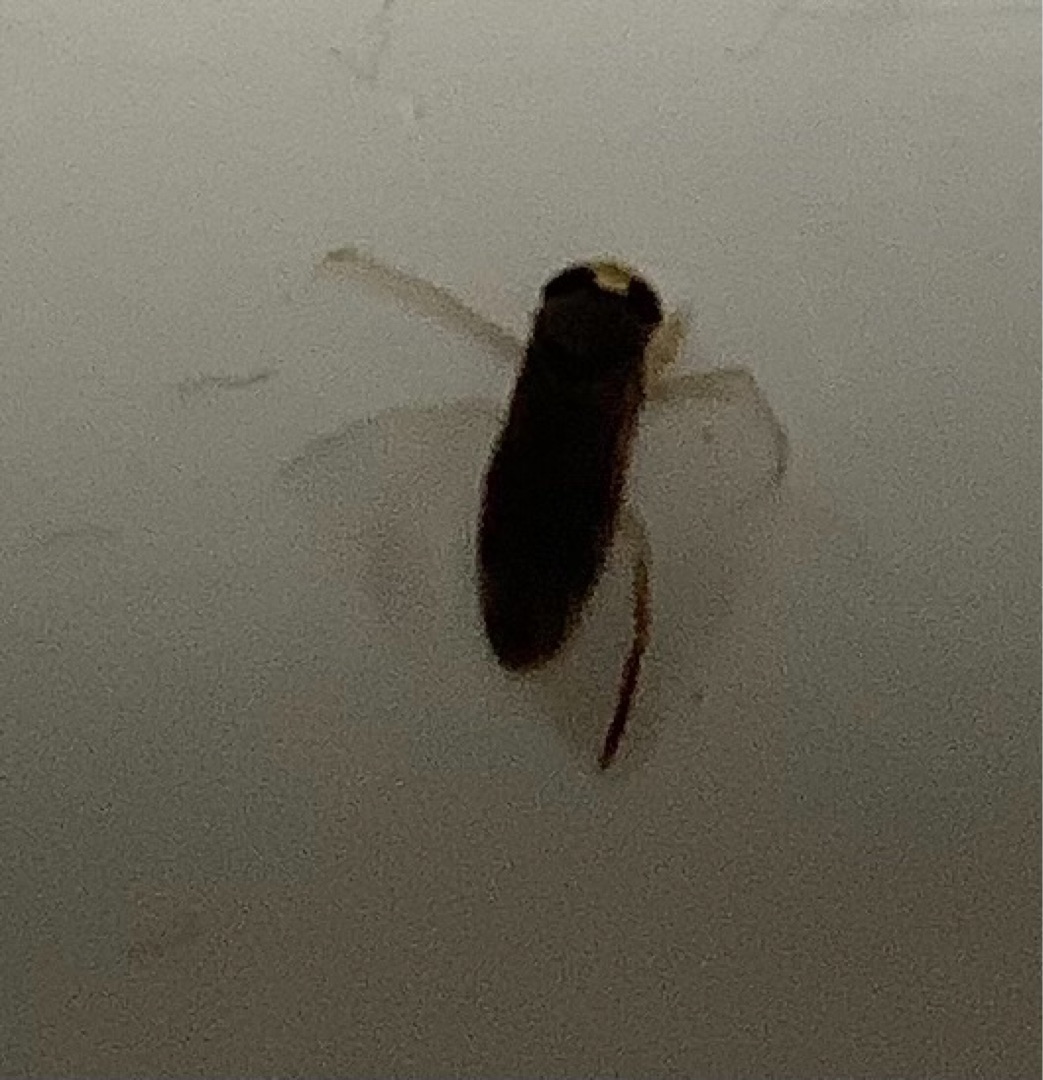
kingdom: Animalia
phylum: Arthropoda
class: Insecta
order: Hemiptera
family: Corixidae
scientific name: Corixidae
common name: Bugsvømmere
